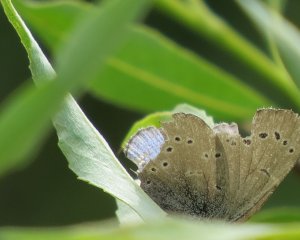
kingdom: Animalia
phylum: Arthropoda
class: Insecta
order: Lepidoptera
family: Lycaenidae
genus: Glaucopsyche
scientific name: Glaucopsyche lygdamus
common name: Silvery Blue
